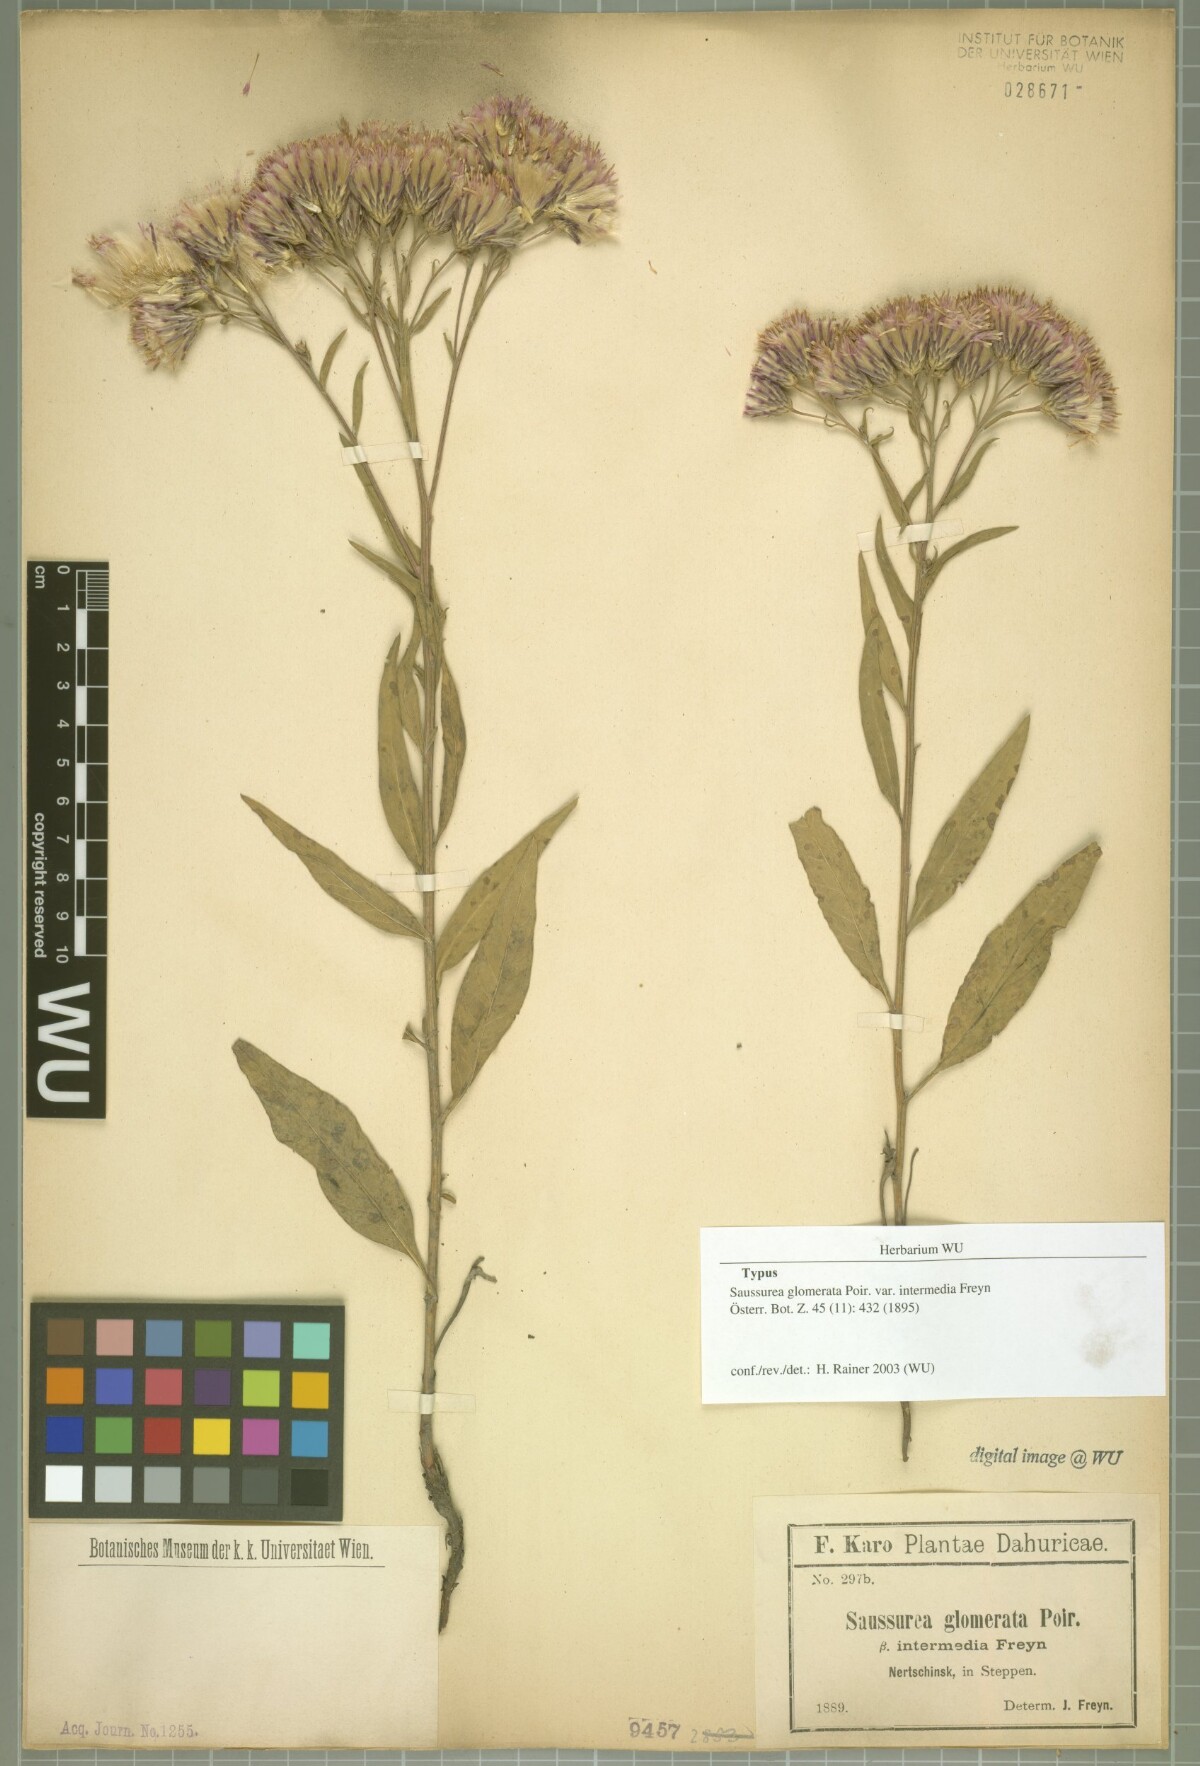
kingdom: Plantae
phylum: Tracheophyta
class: Magnoliopsida
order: Asterales
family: Asteraceae
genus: Saussurea
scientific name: Saussurea amara
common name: Alberta sawwort
